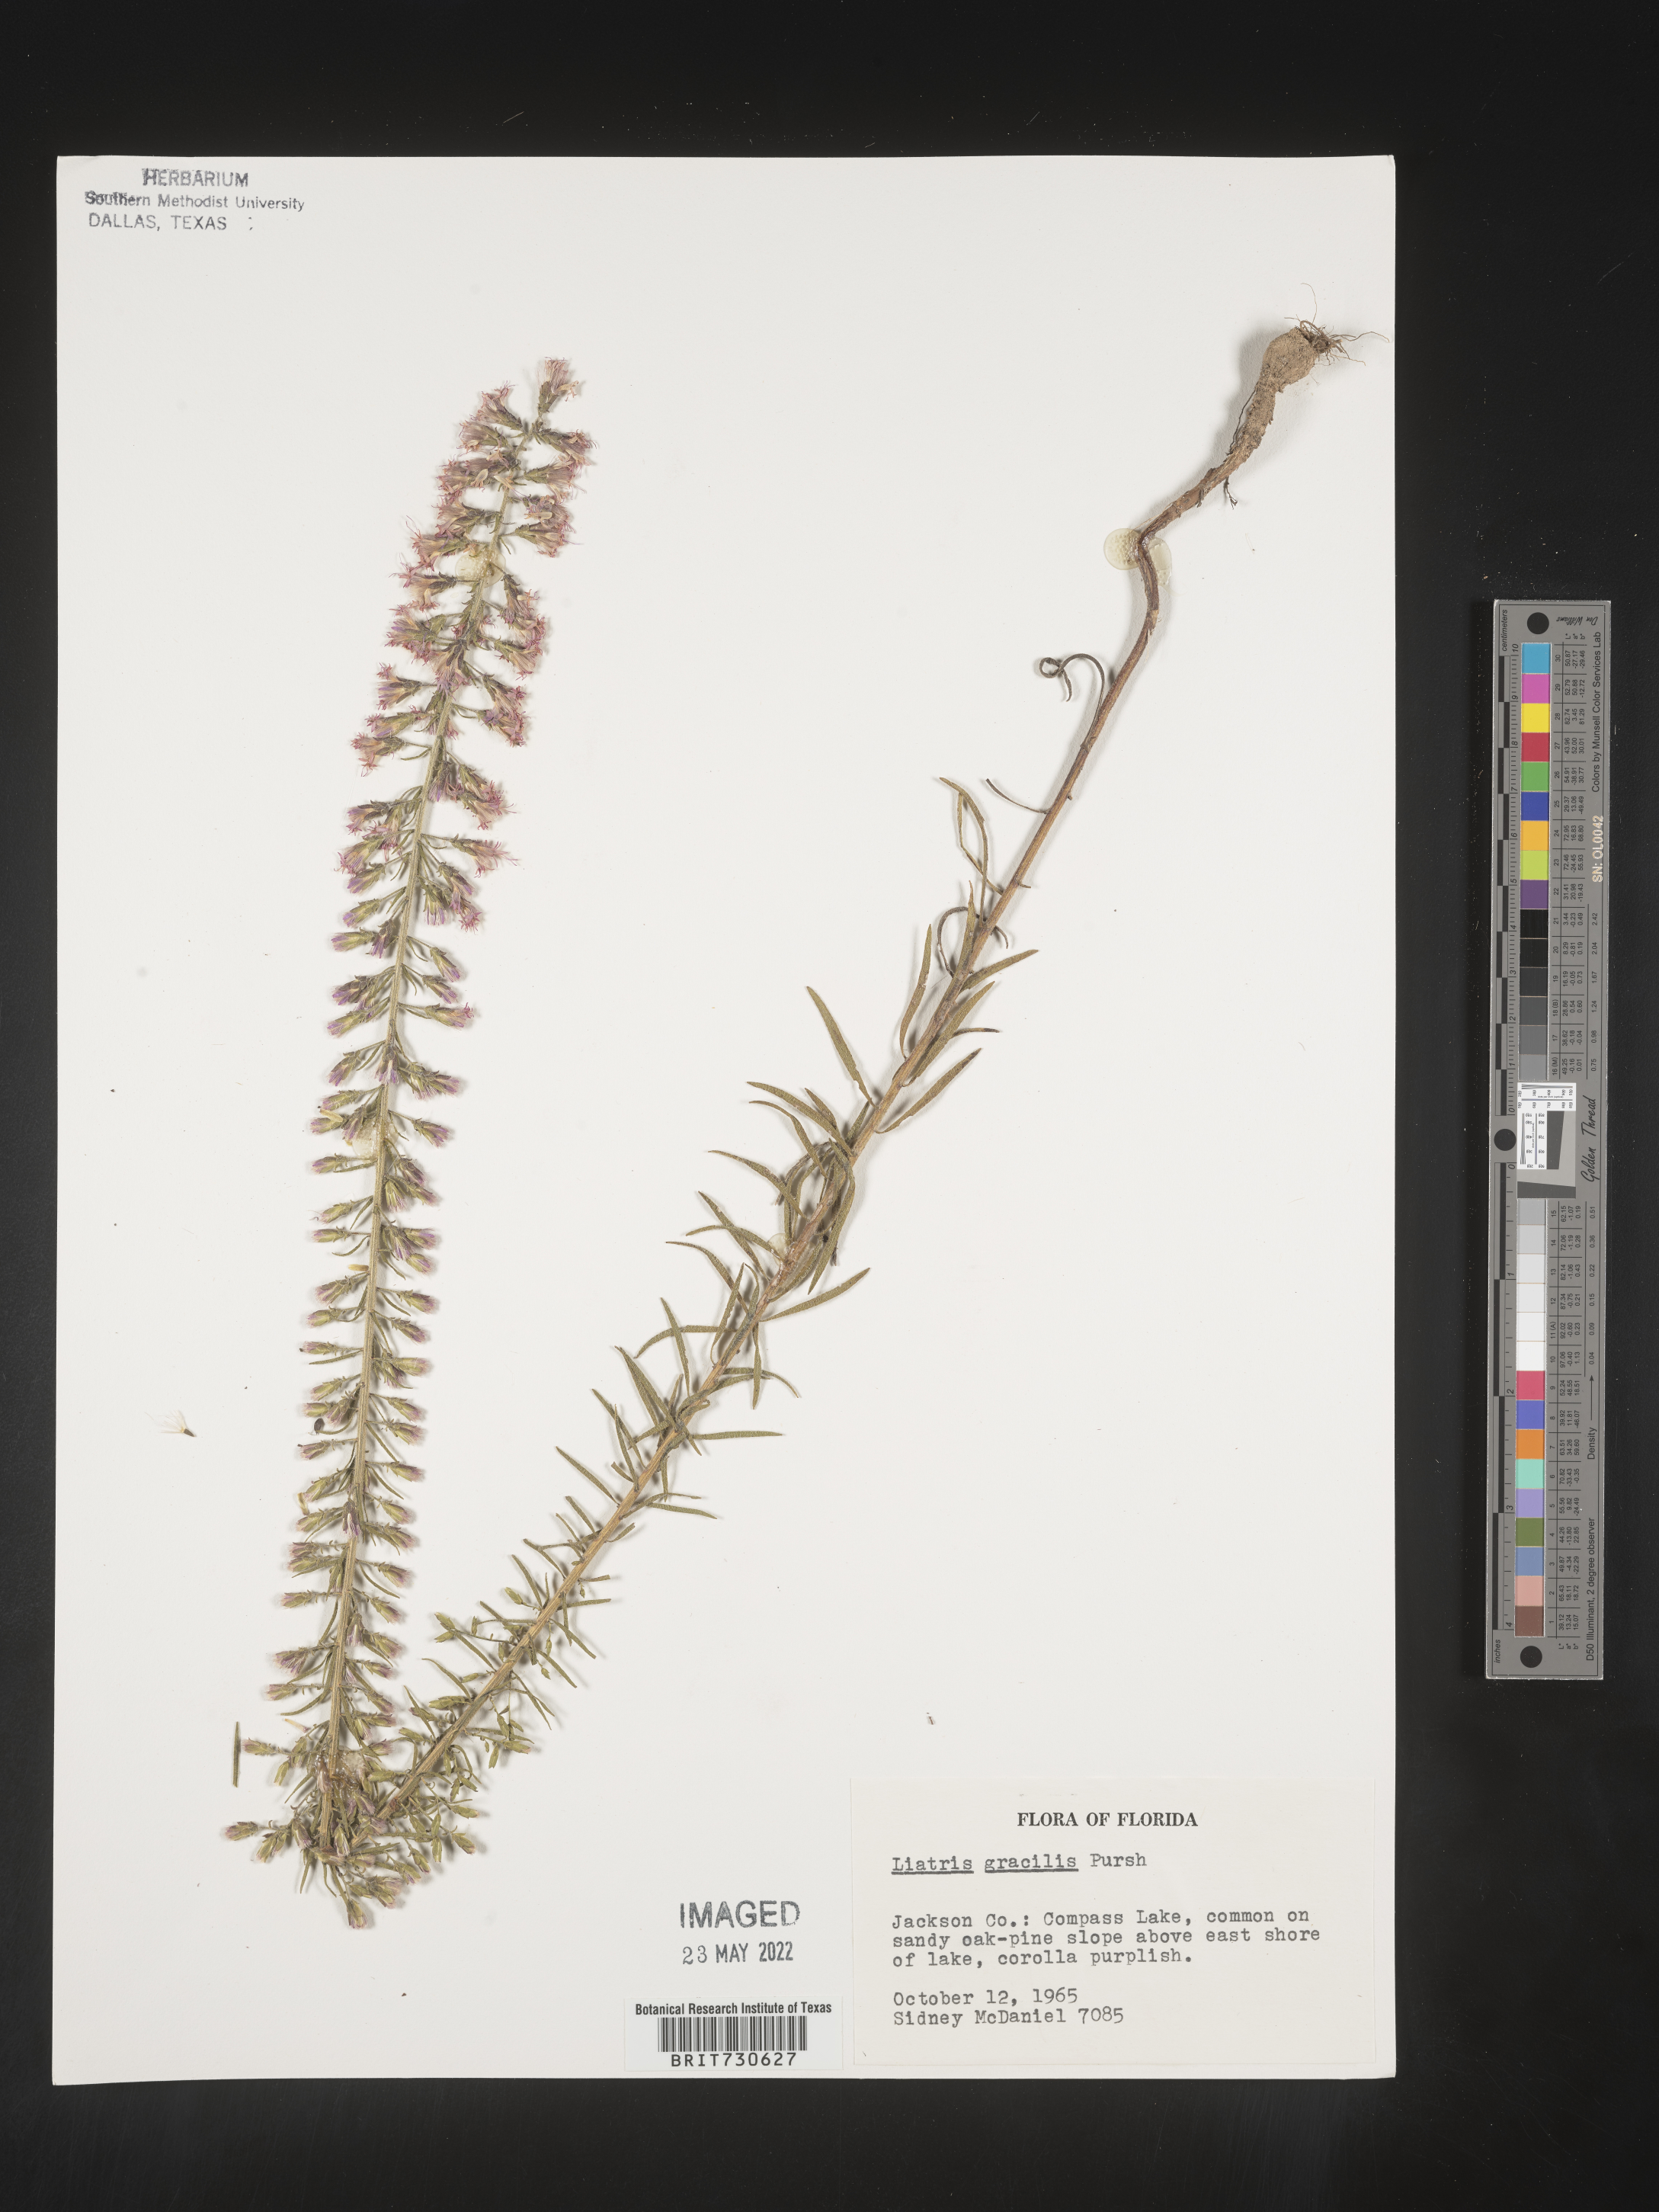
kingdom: Plantae
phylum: Tracheophyta
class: Magnoliopsida
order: Asterales
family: Asteraceae
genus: Liatris
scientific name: Liatris gracilis
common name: Slender gayfeather
